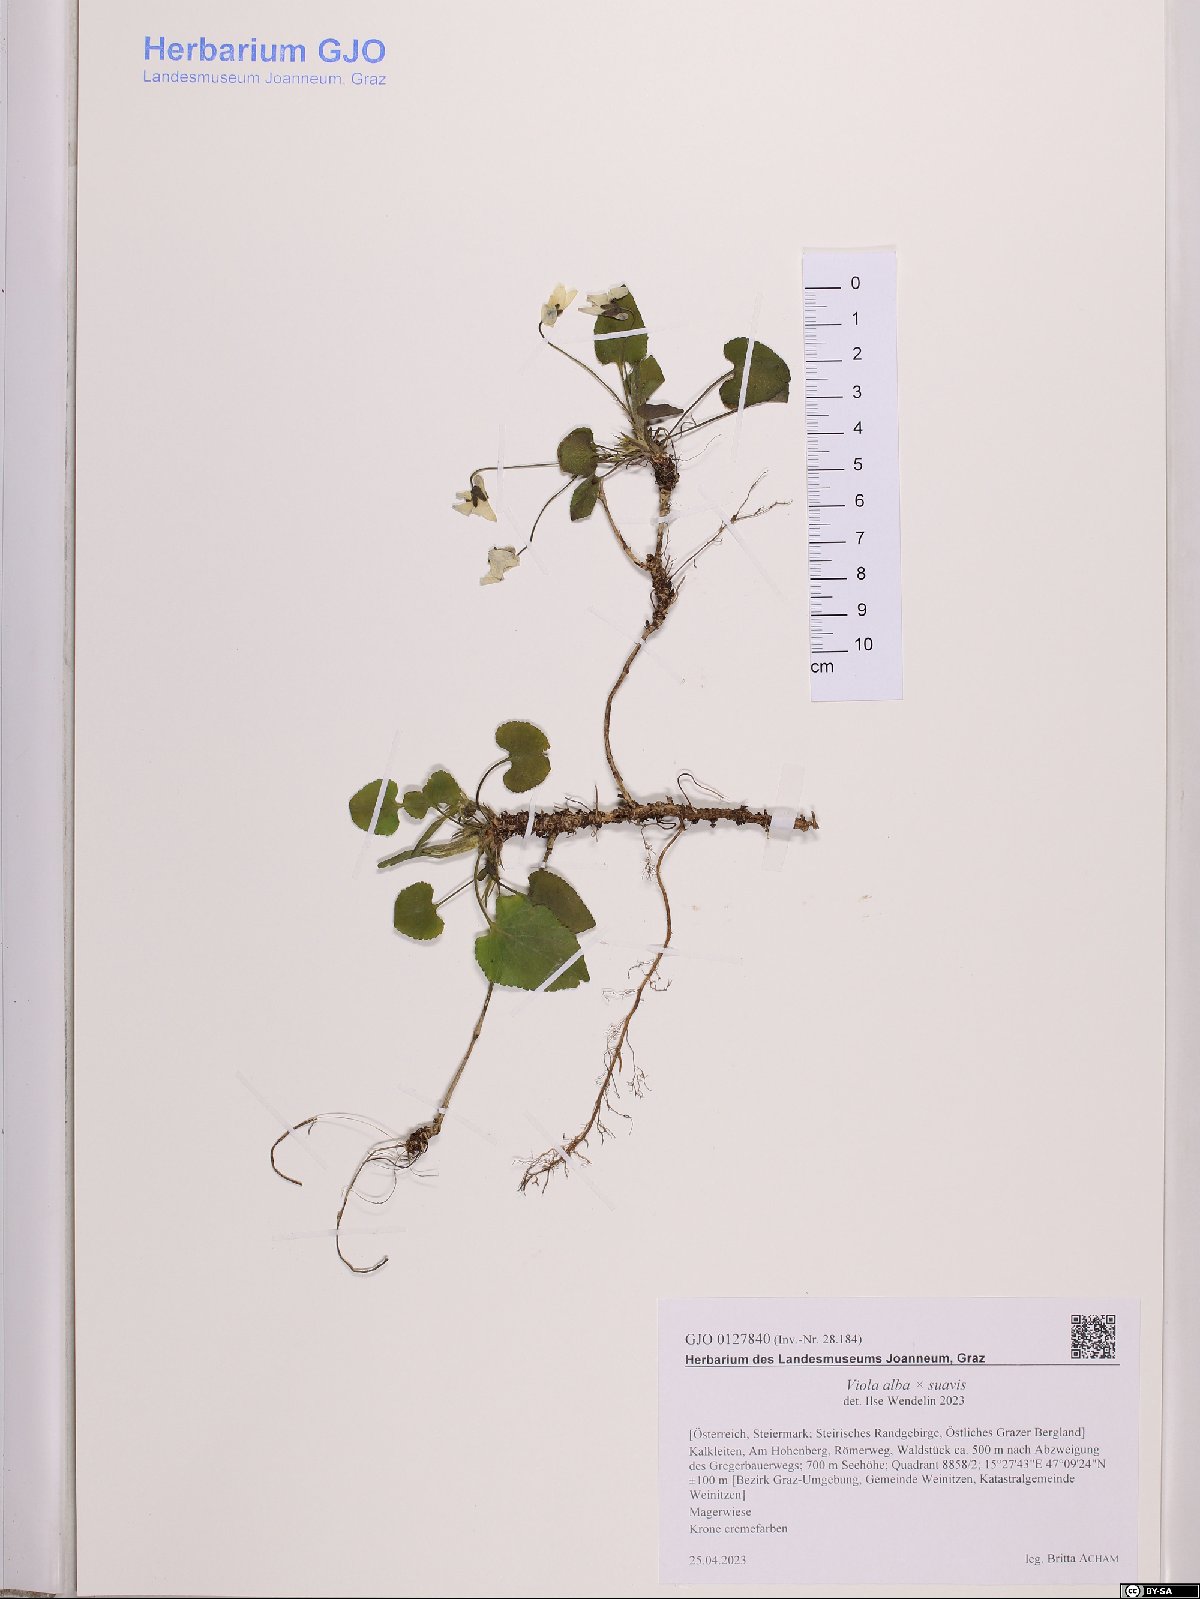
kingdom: Plantae
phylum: Tracheophyta
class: Magnoliopsida
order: Malpighiales
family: Violaceae
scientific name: Violaceae
